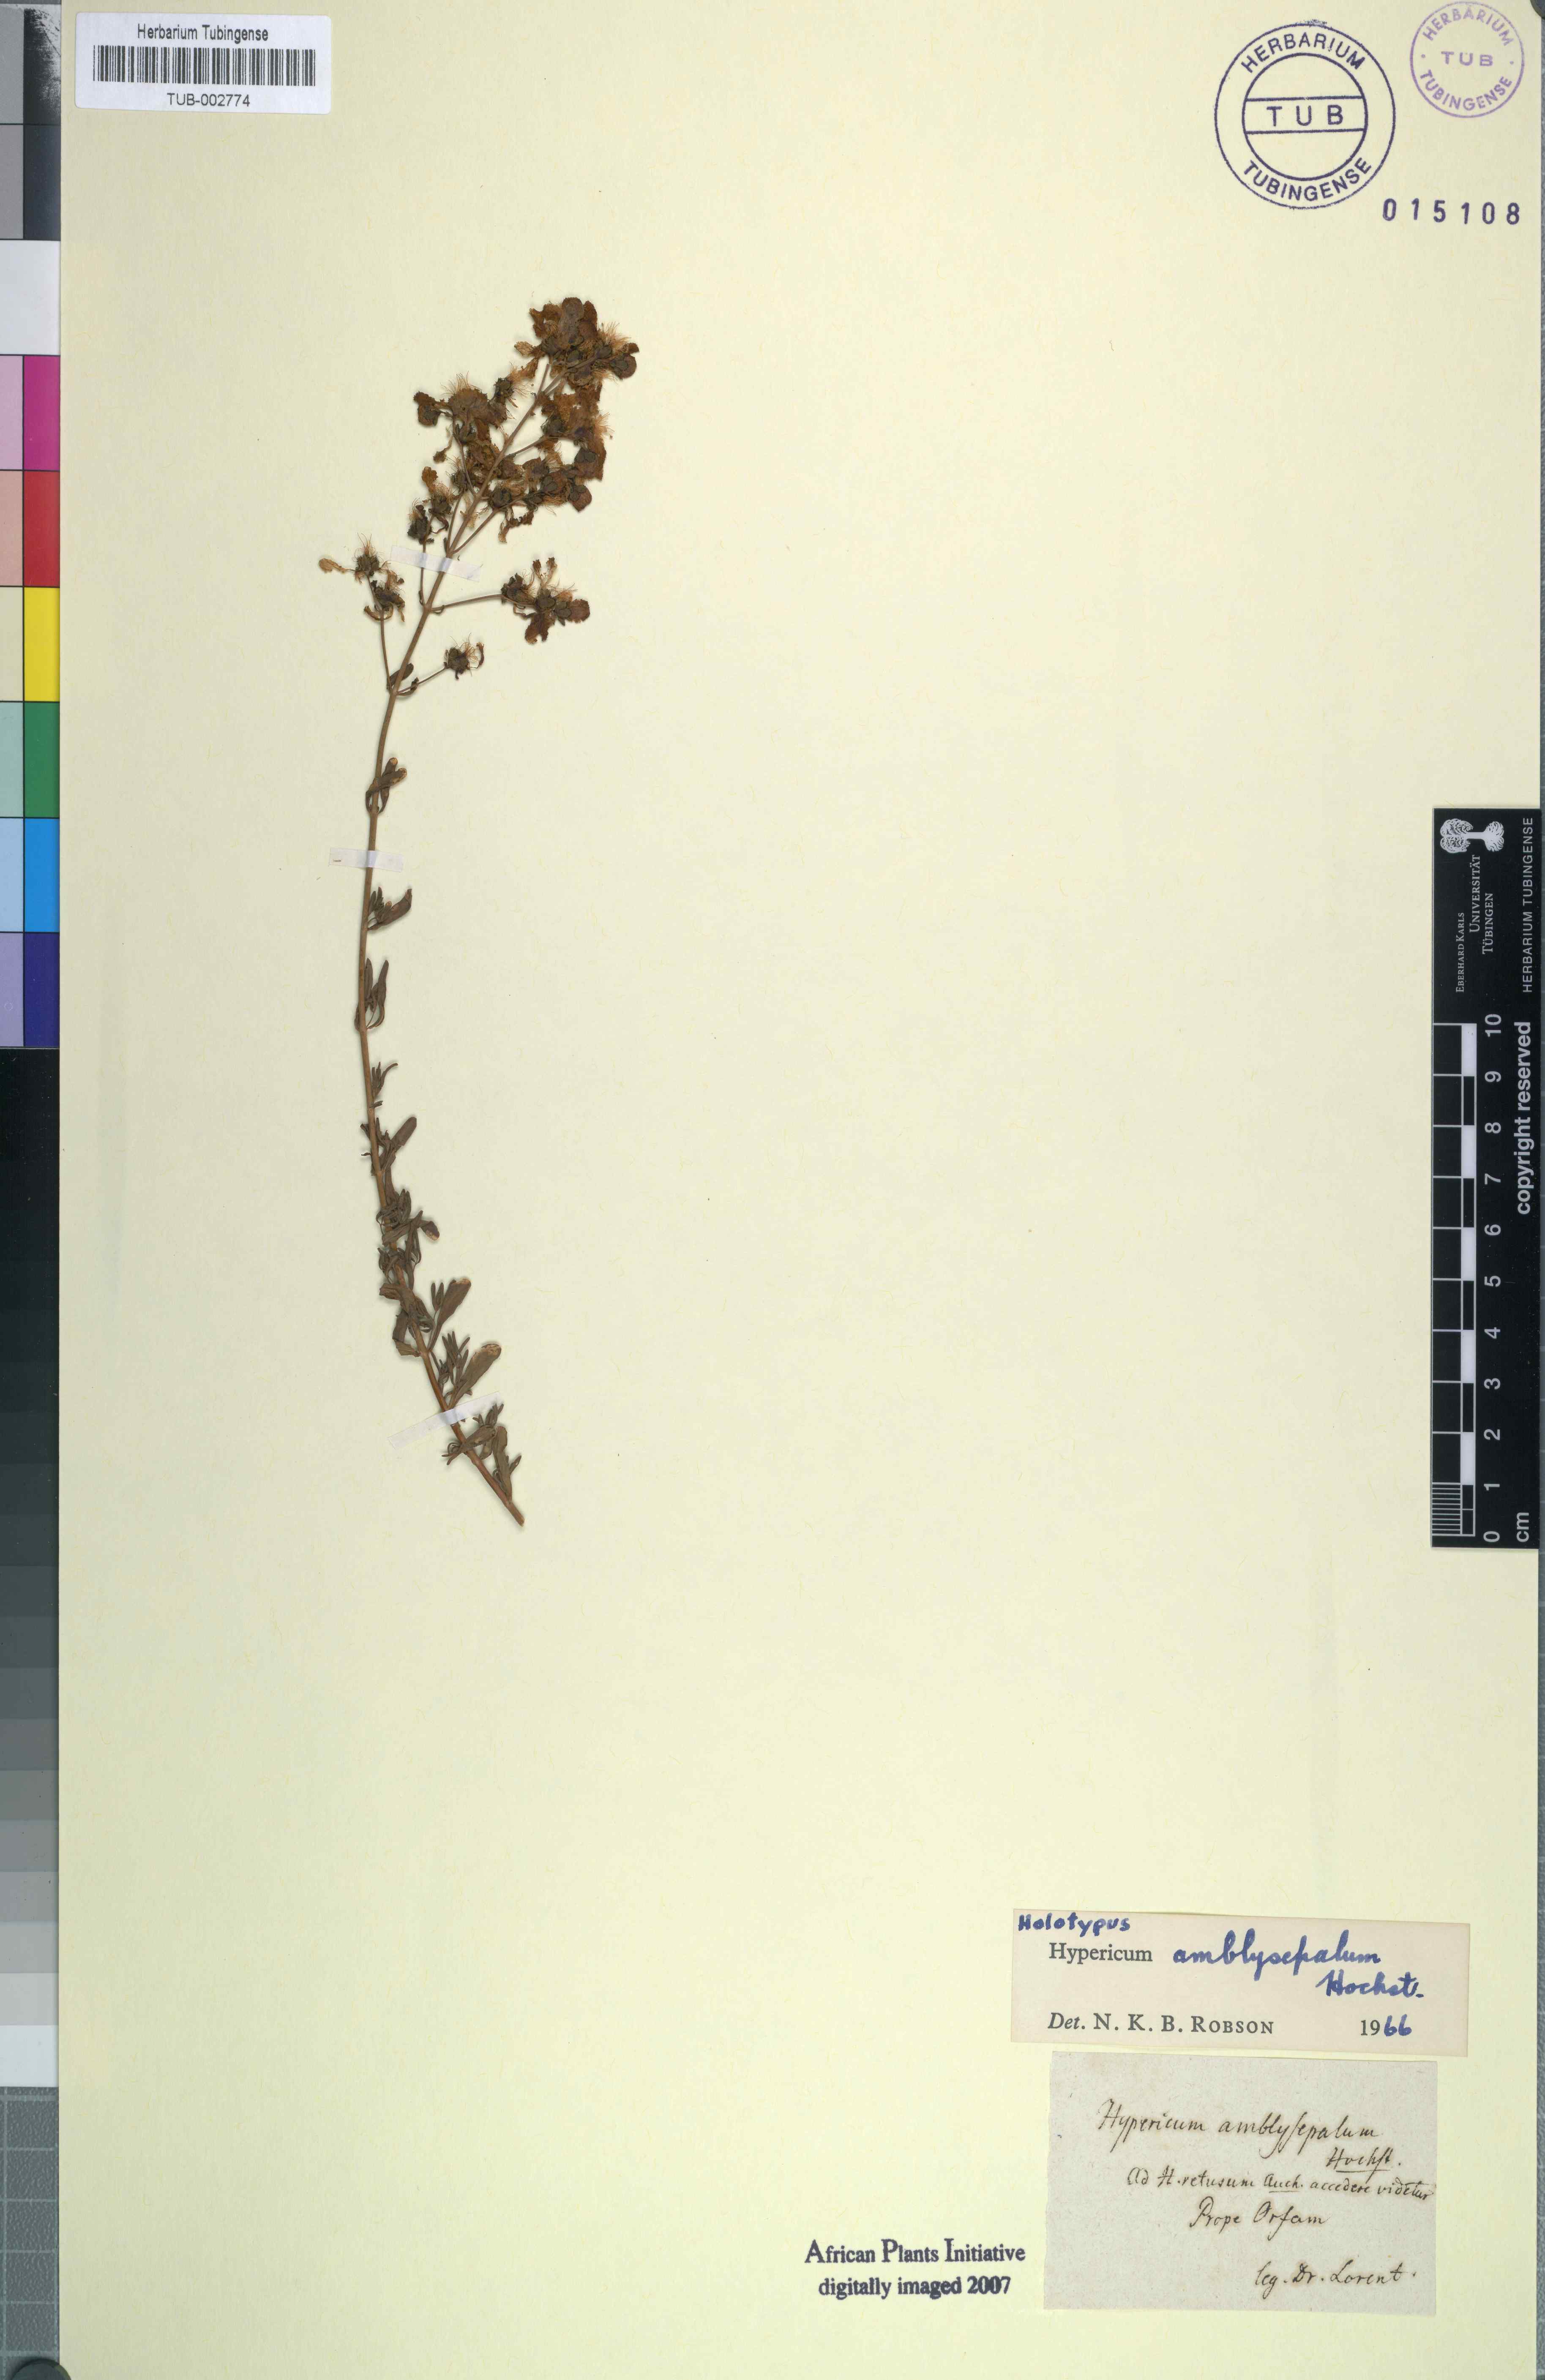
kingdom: Plantae
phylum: Tracheophyta
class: Magnoliopsida
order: Malpighiales
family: Hypericaceae
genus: Hypericum
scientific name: Hypericum amblysepalum
